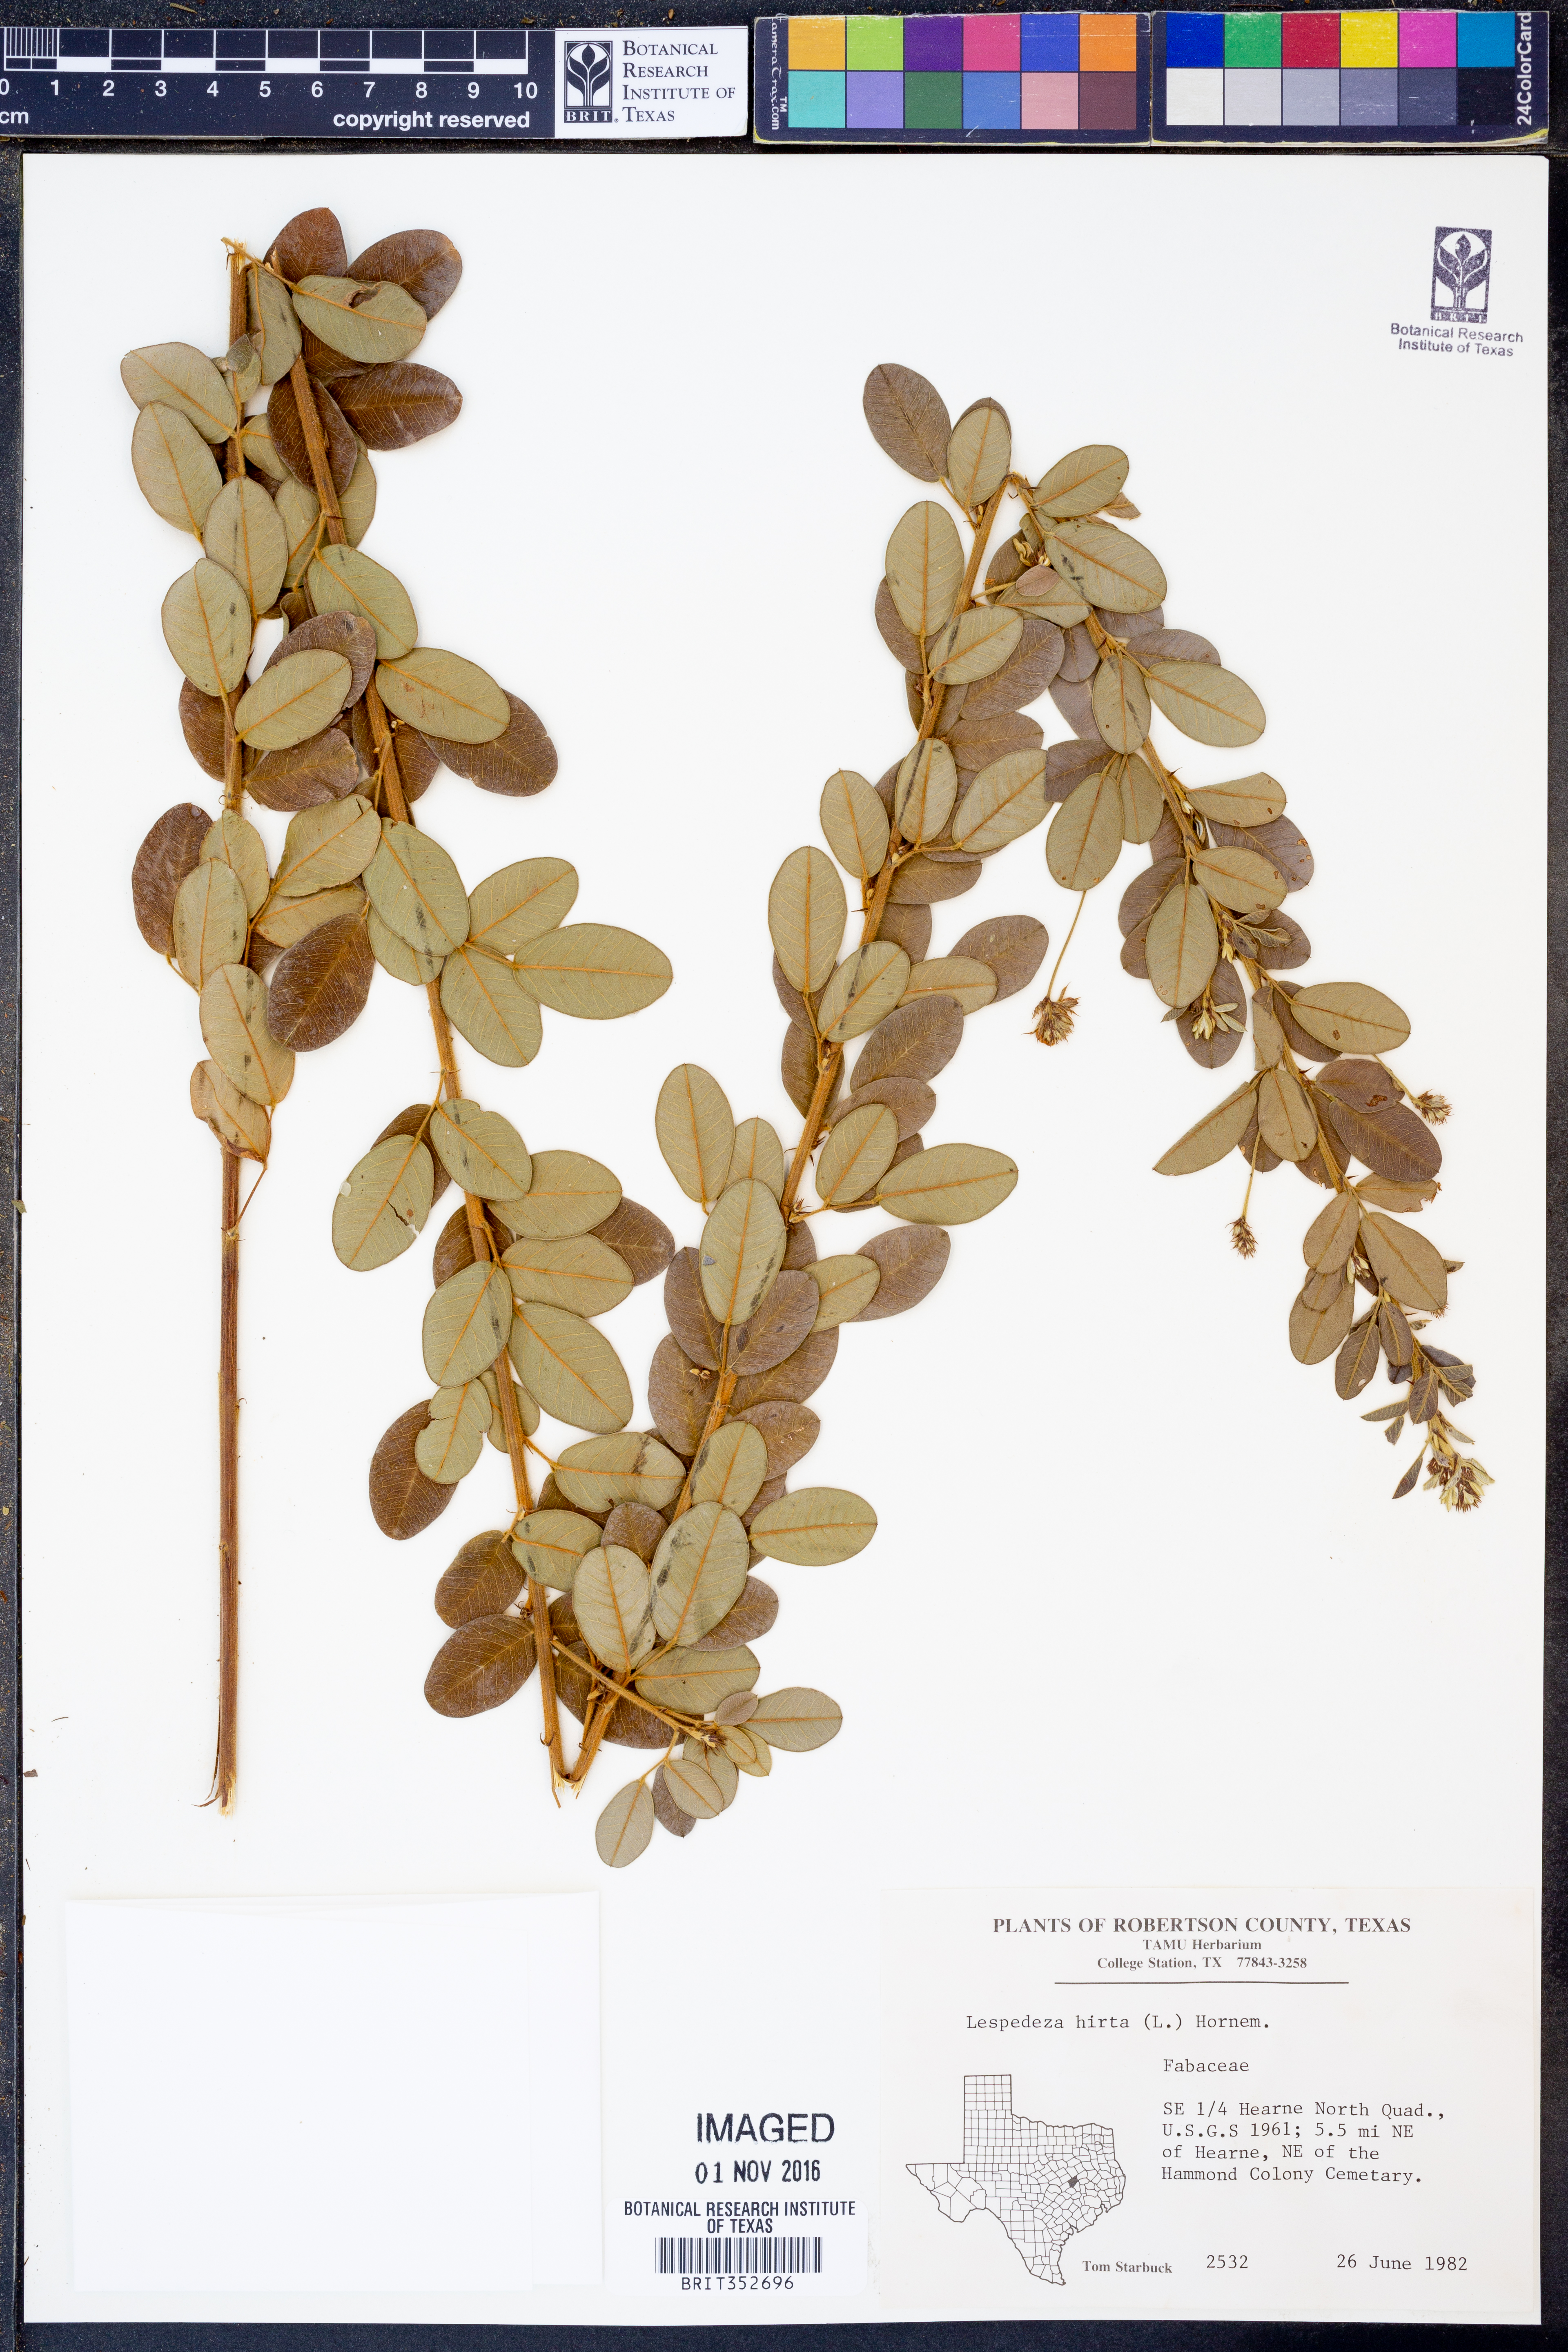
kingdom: Plantae
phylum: Tracheophyta
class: Magnoliopsida
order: Fabales
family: Fabaceae
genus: Lespedeza
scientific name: Lespedeza hirta
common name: Hairy lespedeza
